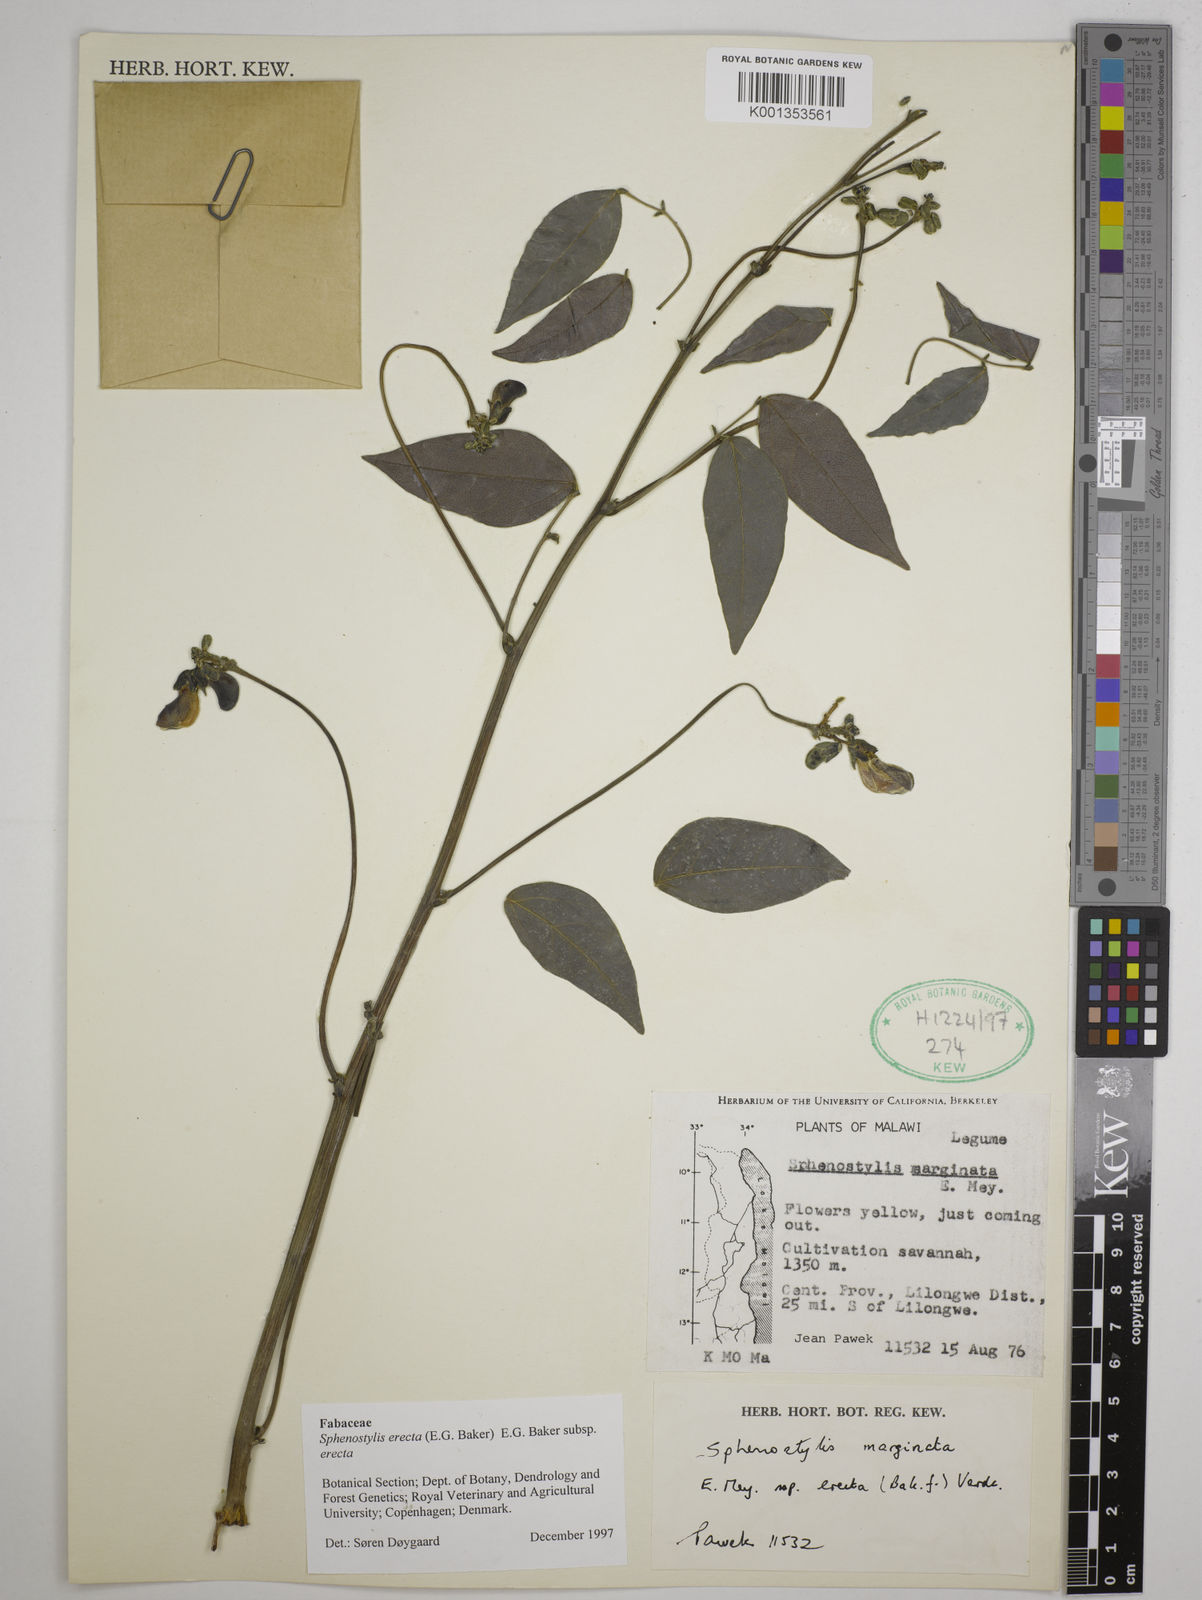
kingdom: Plantae
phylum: Tracheophyta
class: Magnoliopsida
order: Fabales
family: Fabaceae
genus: Sphenostylis
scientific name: Sphenostylis erecta
